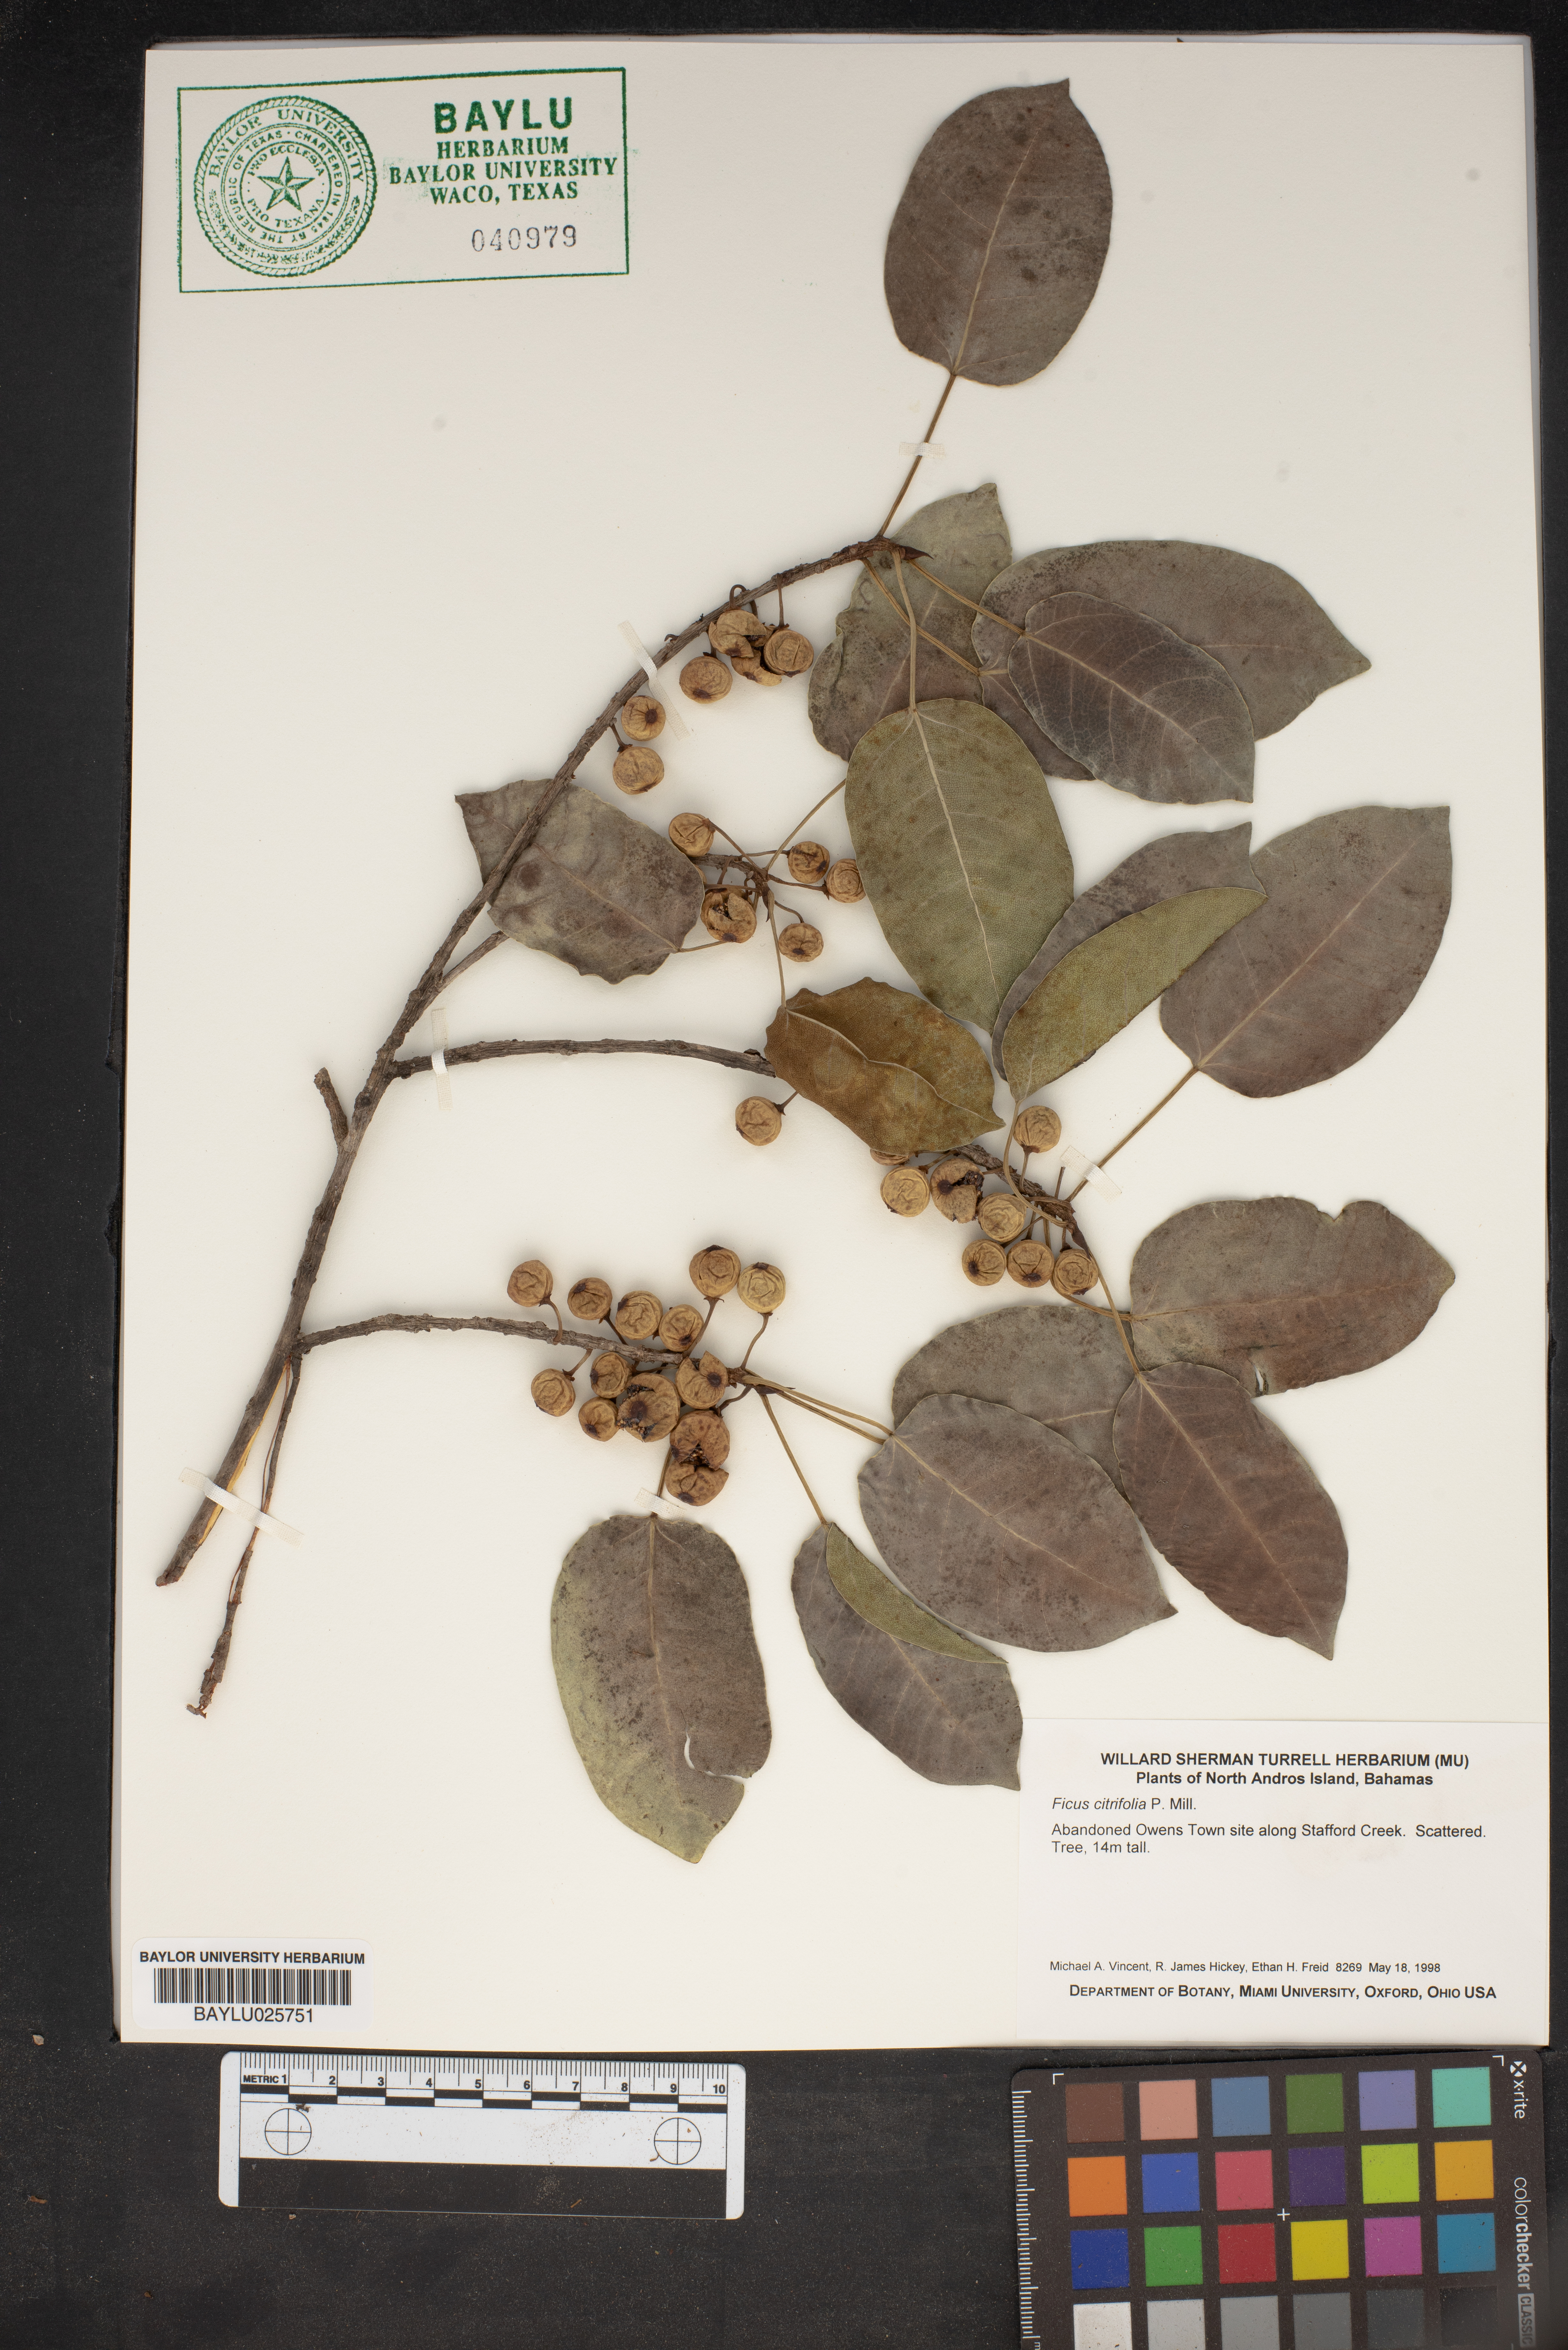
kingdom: Plantae
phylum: Tracheophyta
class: Magnoliopsida
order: Rosales
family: Moraceae
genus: Ficus
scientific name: Ficus citrifolia
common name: Strangler fig
